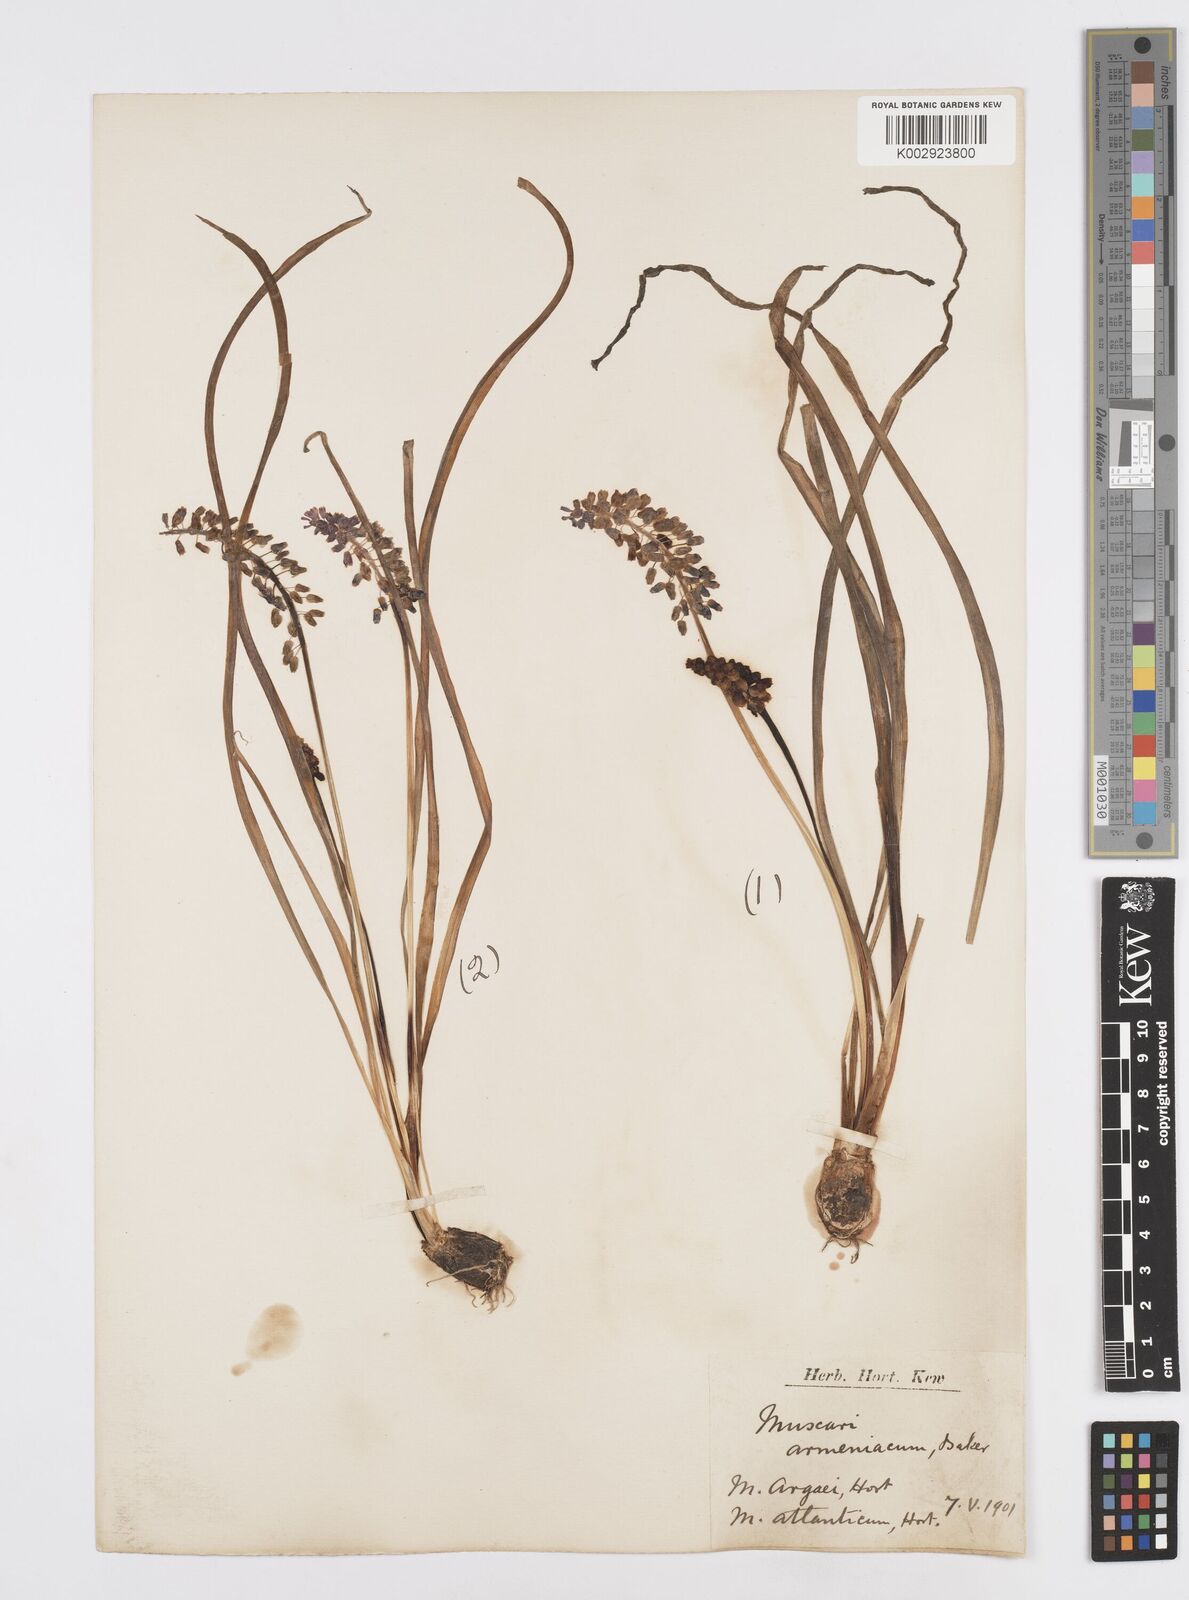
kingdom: Plantae
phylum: Tracheophyta
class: Liliopsida
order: Asparagales
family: Asparagaceae
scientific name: Asparagaceae
